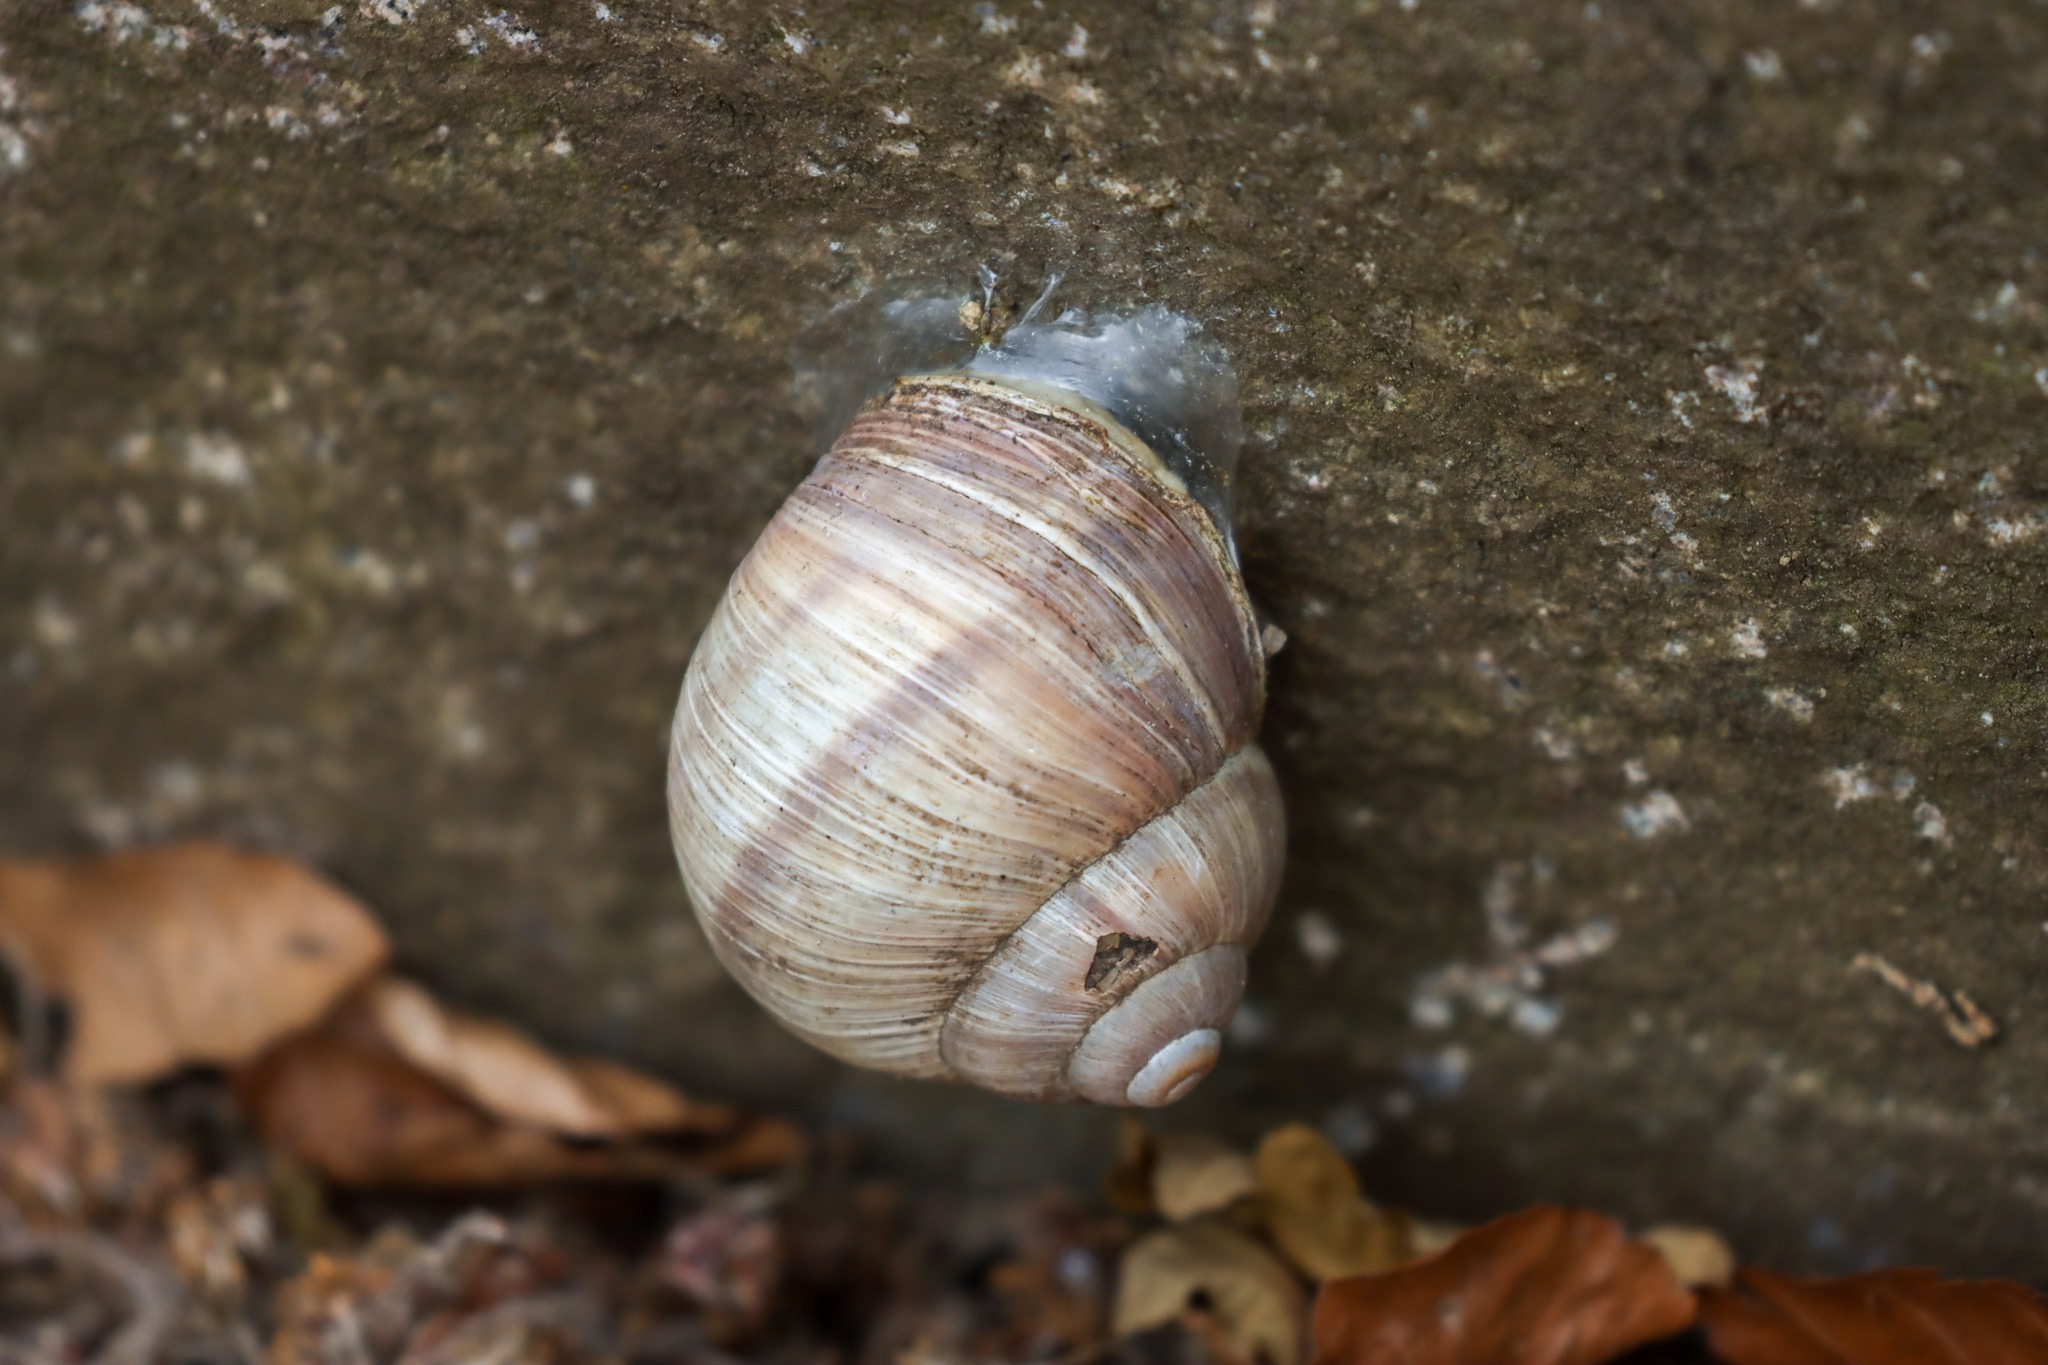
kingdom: Animalia
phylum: Mollusca
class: Gastropoda
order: Stylommatophora
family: Helicidae
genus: Helix
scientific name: Helix pomatia
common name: Vinbjergsnegl
